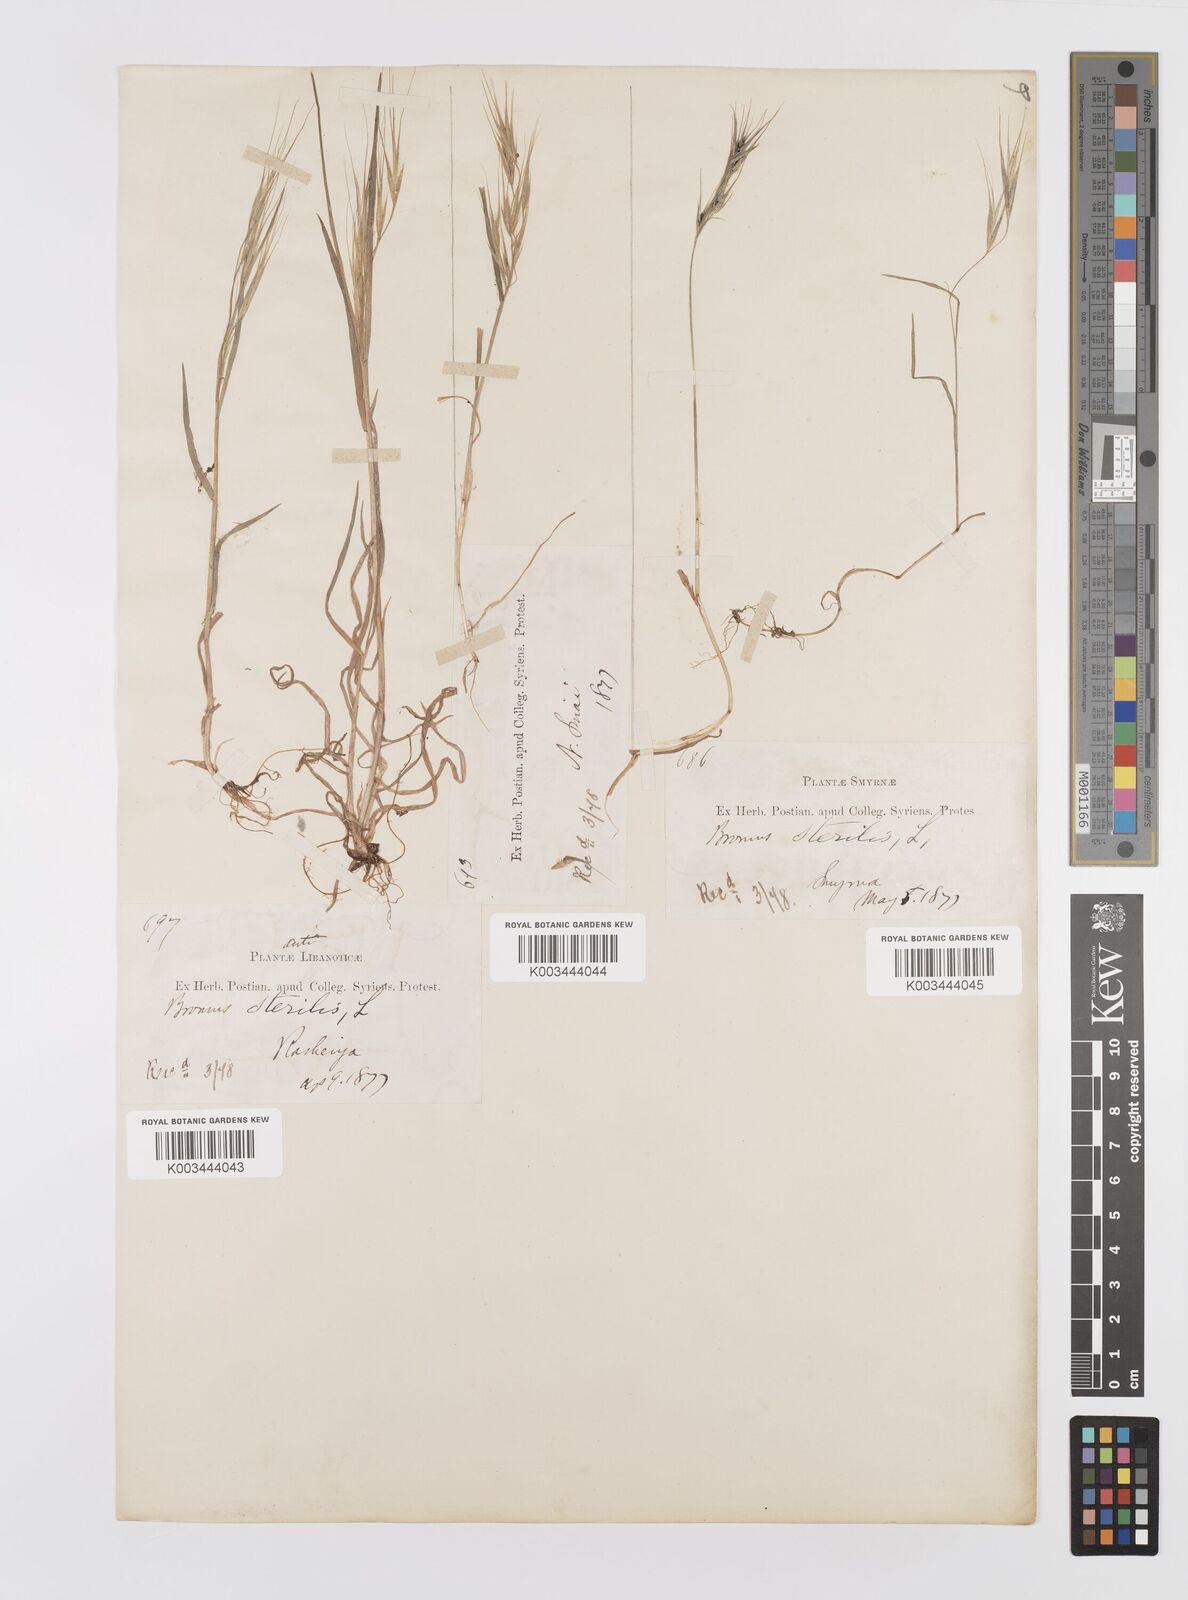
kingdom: Plantae
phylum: Tracheophyta
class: Liliopsida
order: Poales
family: Poaceae
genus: Bromus
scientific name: Bromus sterilis
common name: Poverty brome
